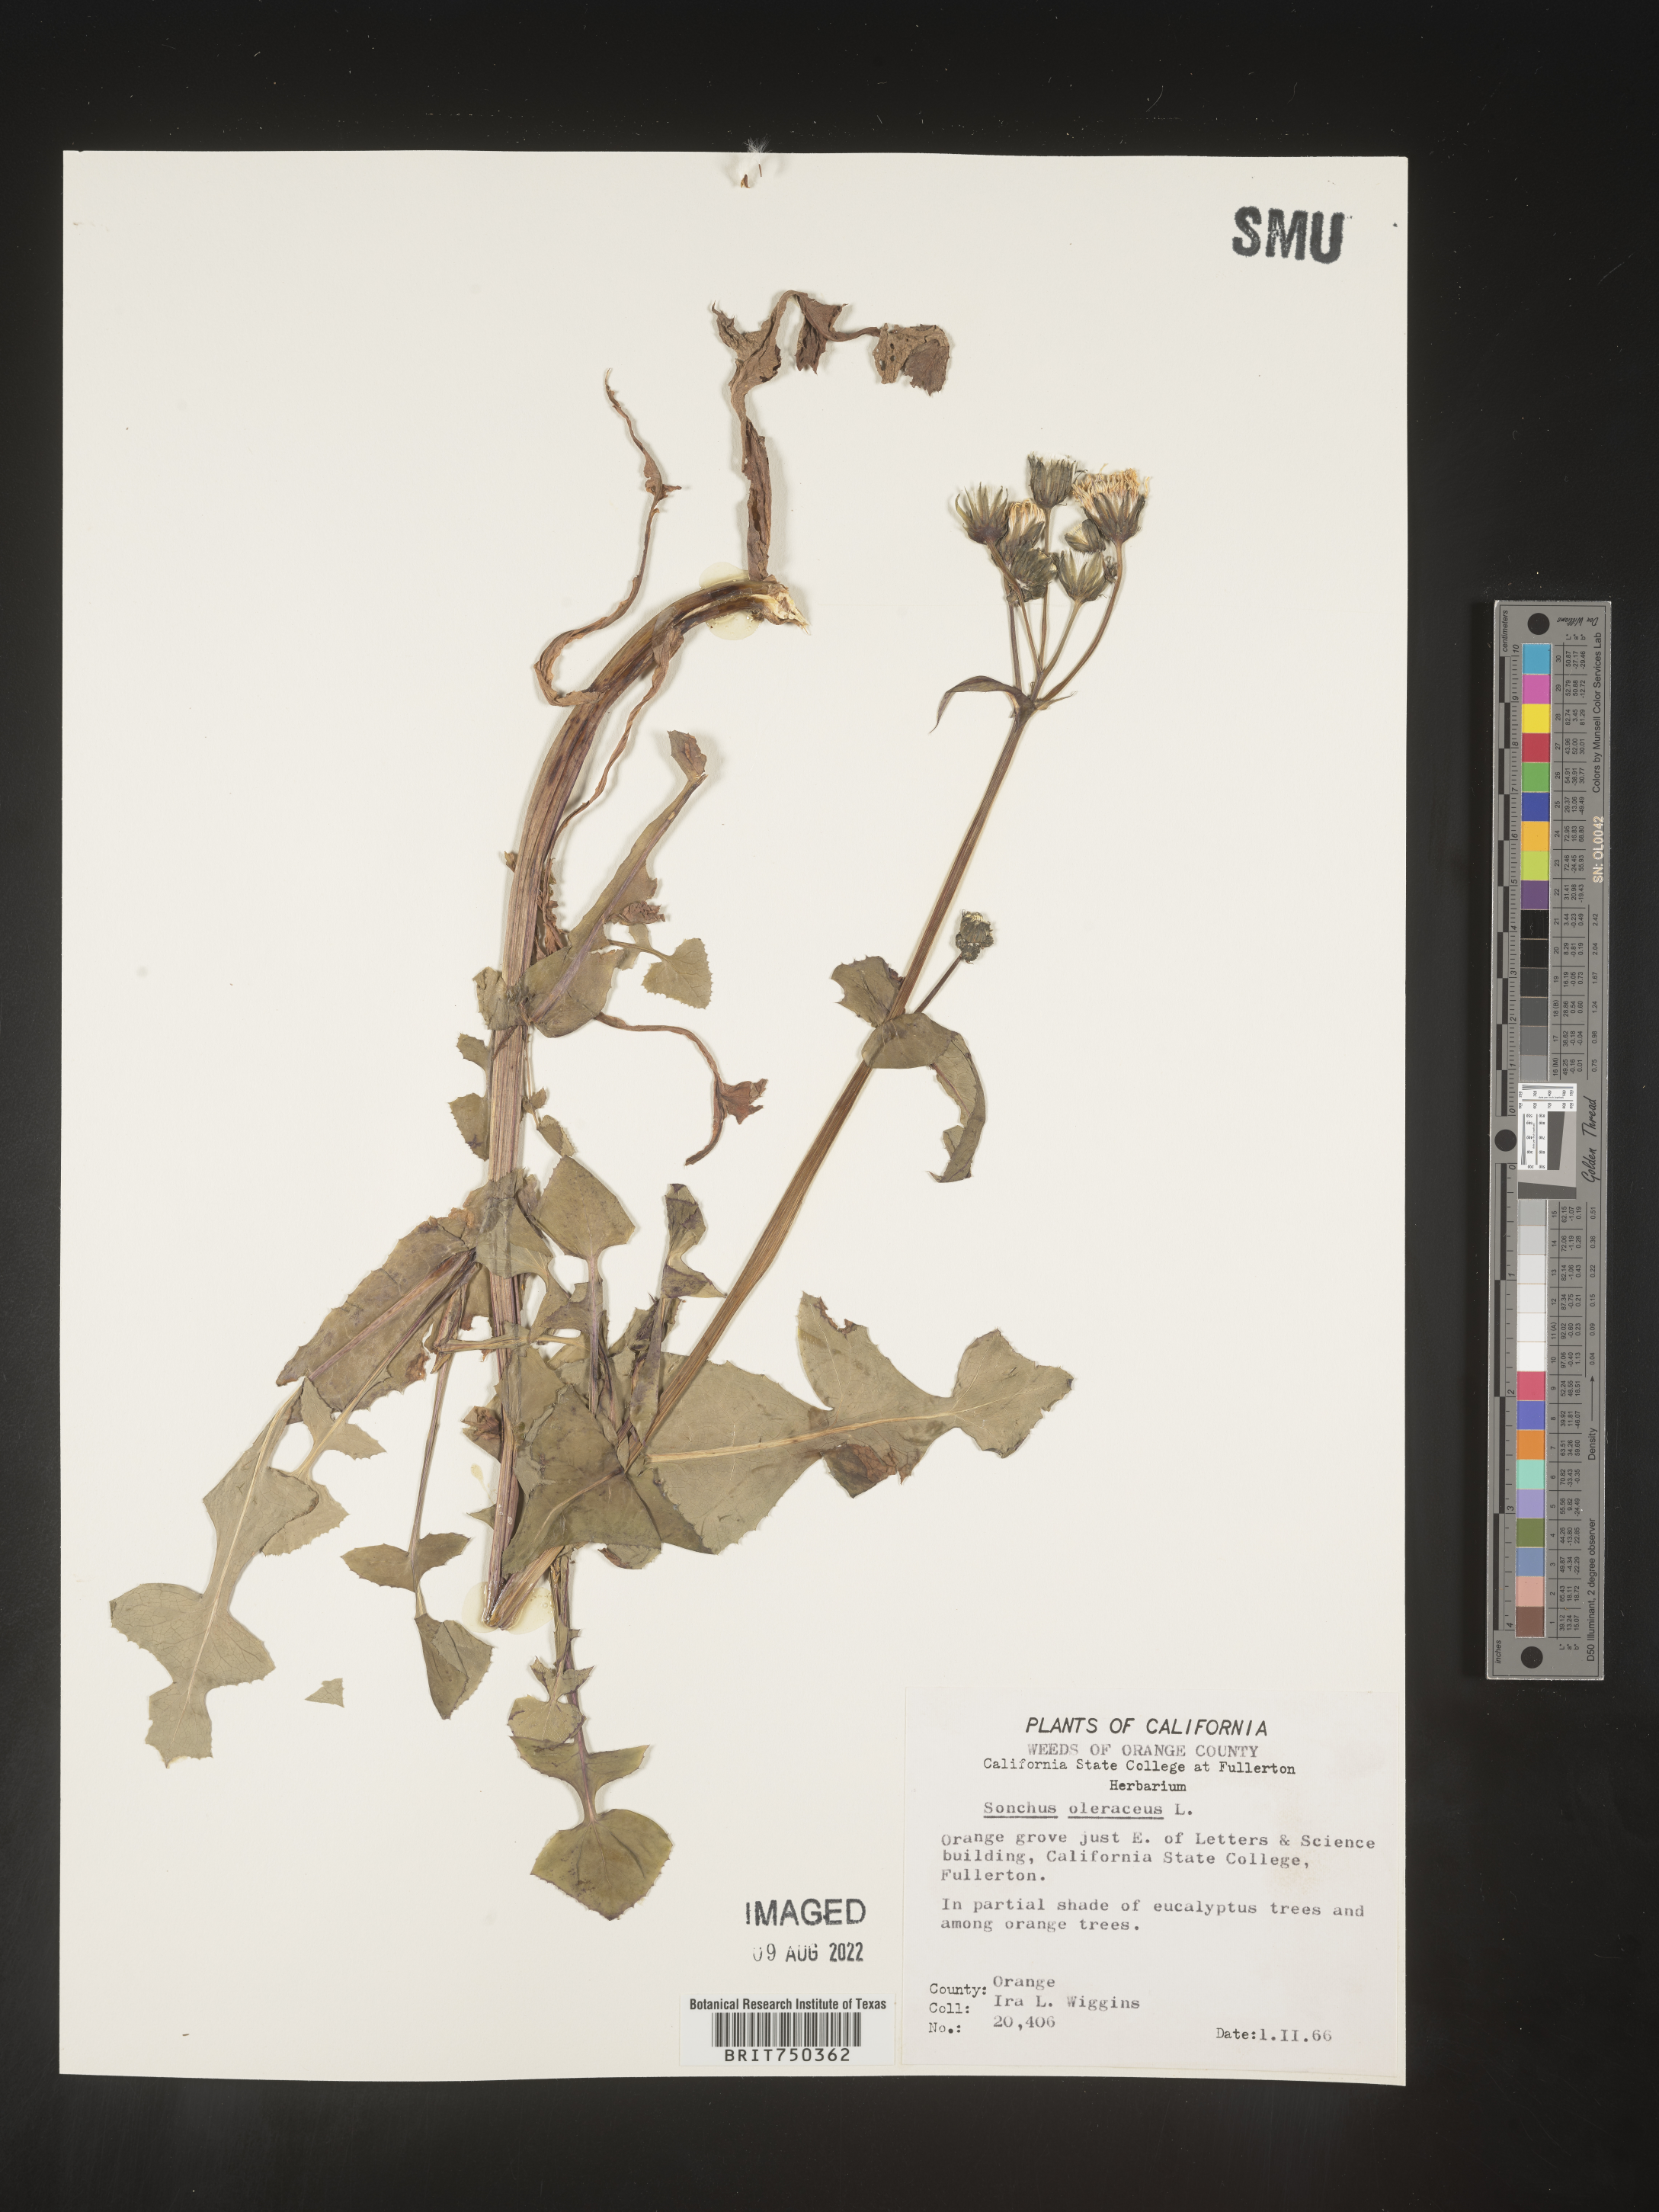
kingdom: Plantae
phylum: Tracheophyta
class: Magnoliopsida
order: Asterales
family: Asteraceae
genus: Sonchus
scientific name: Sonchus oleraceus
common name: Common sowthistle
